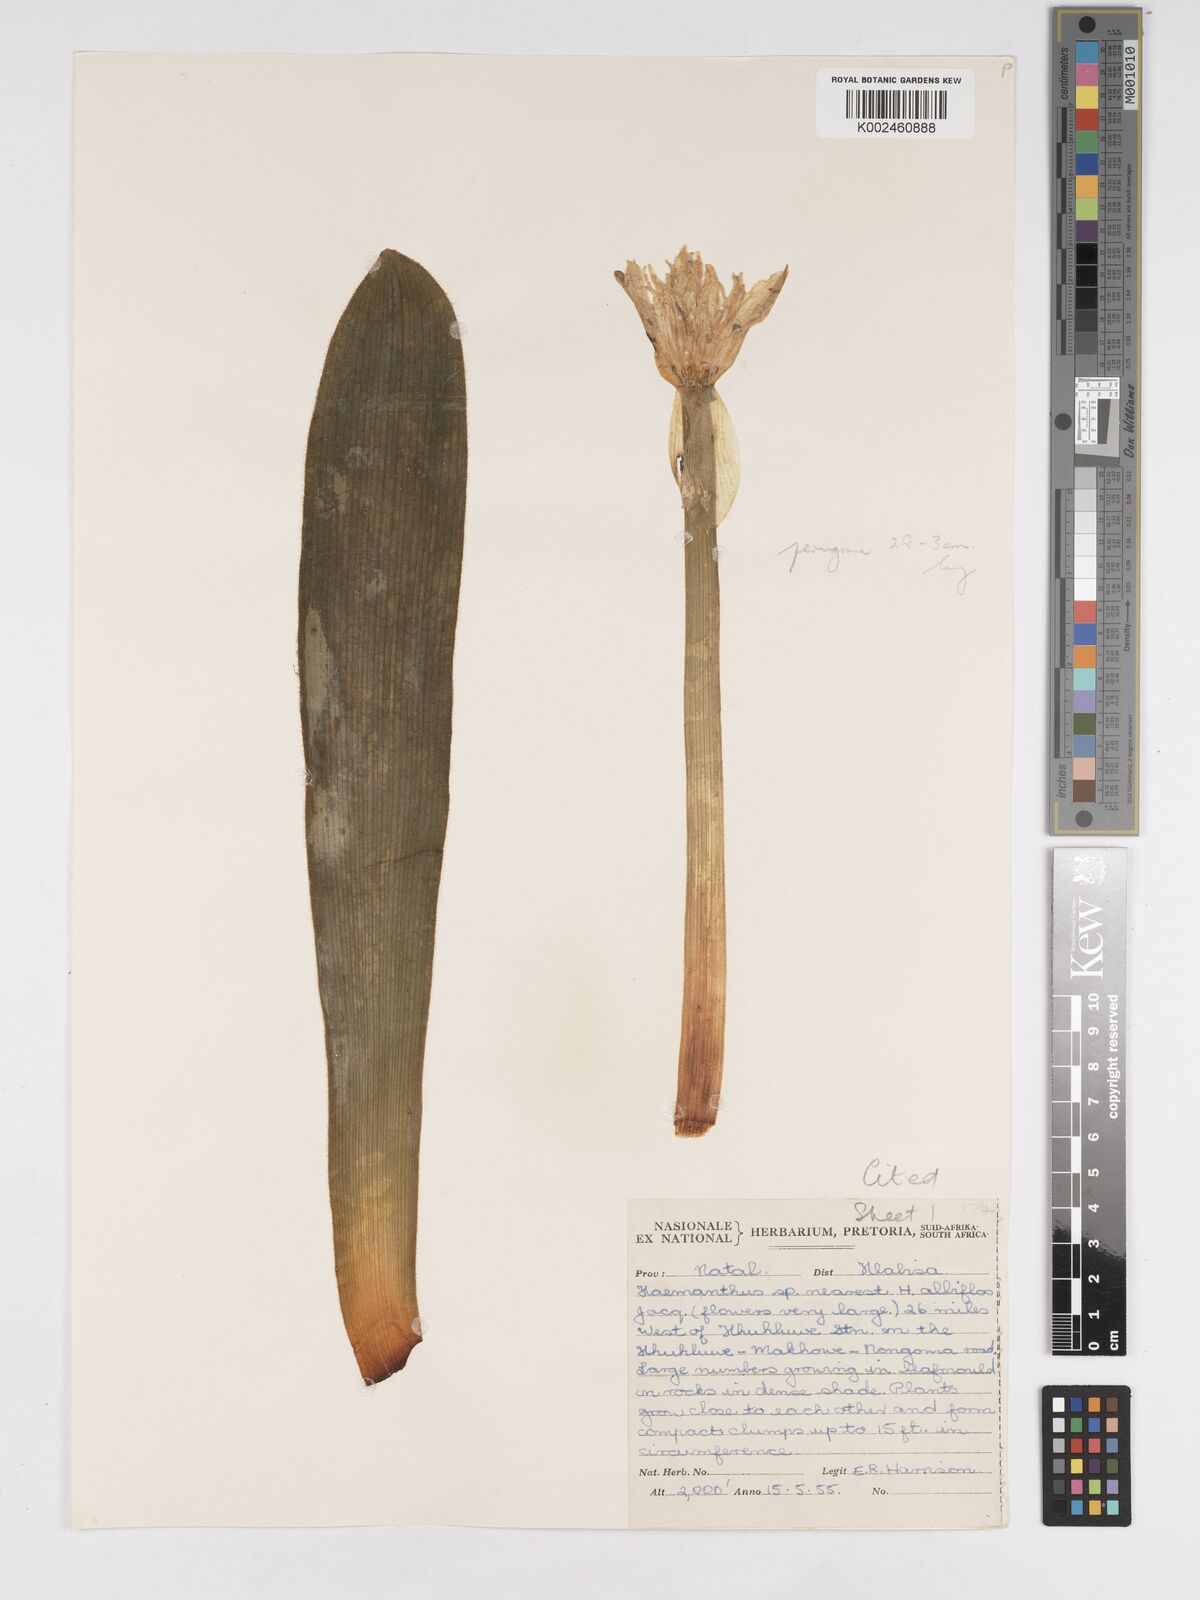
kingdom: Plantae
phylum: Tracheophyta
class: Liliopsida
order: Asparagales
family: Amaryllidaceae
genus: Haemanthus
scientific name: Haemanthus albiflos
